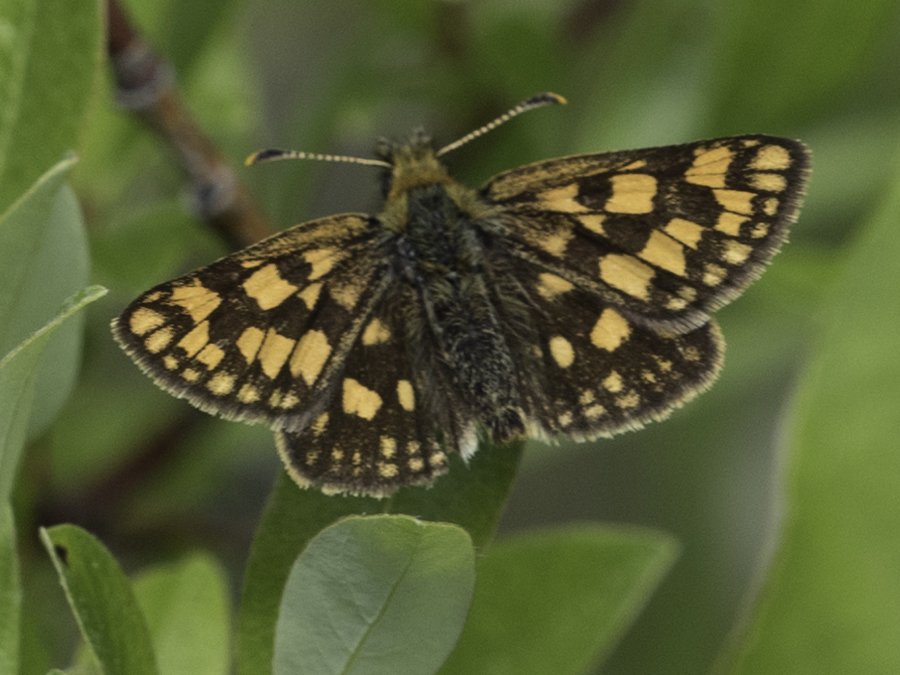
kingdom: Animalia
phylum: Arthropoda
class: Insecta
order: Lepidoptera
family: Hesperiidae
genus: Carterocephalus
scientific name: Carterocephalus palaemon
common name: Chequered Skipper
